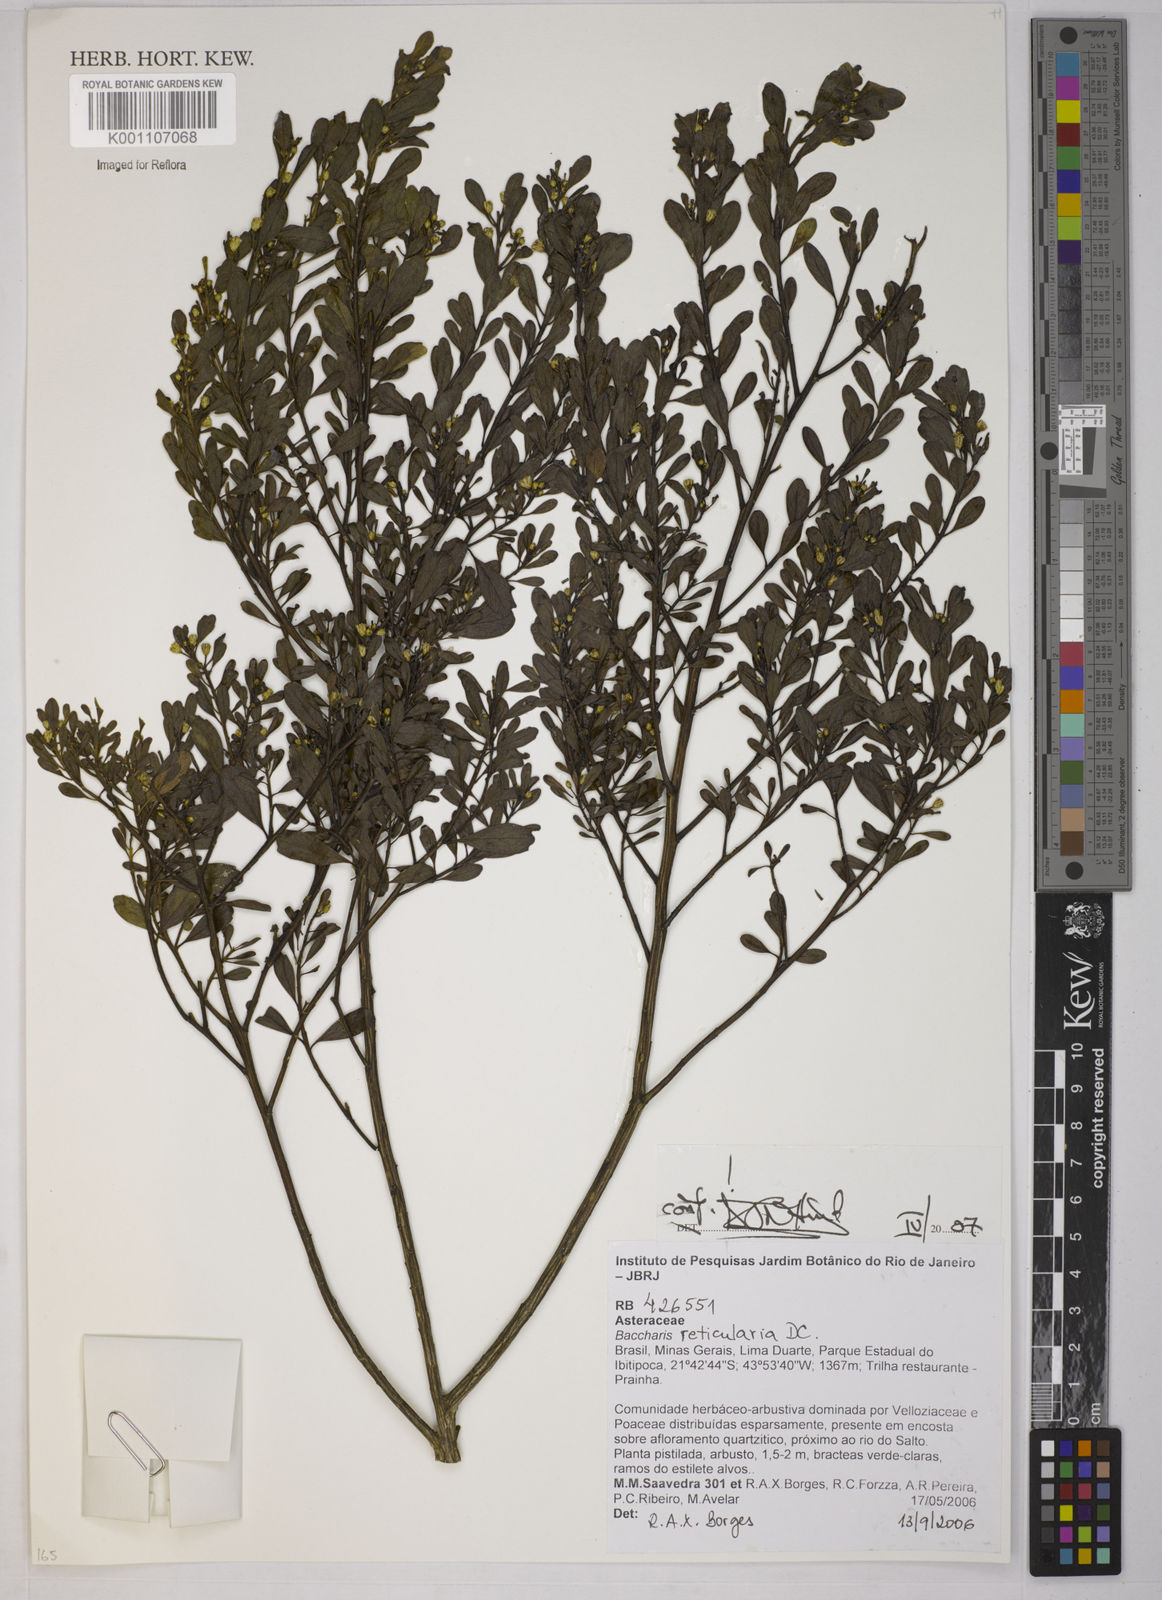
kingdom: Plantae
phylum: Tracheophyta
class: Magnoliopsida
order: Asterales
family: Asteraceae
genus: Baccharis
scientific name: Baccharis reticularia
